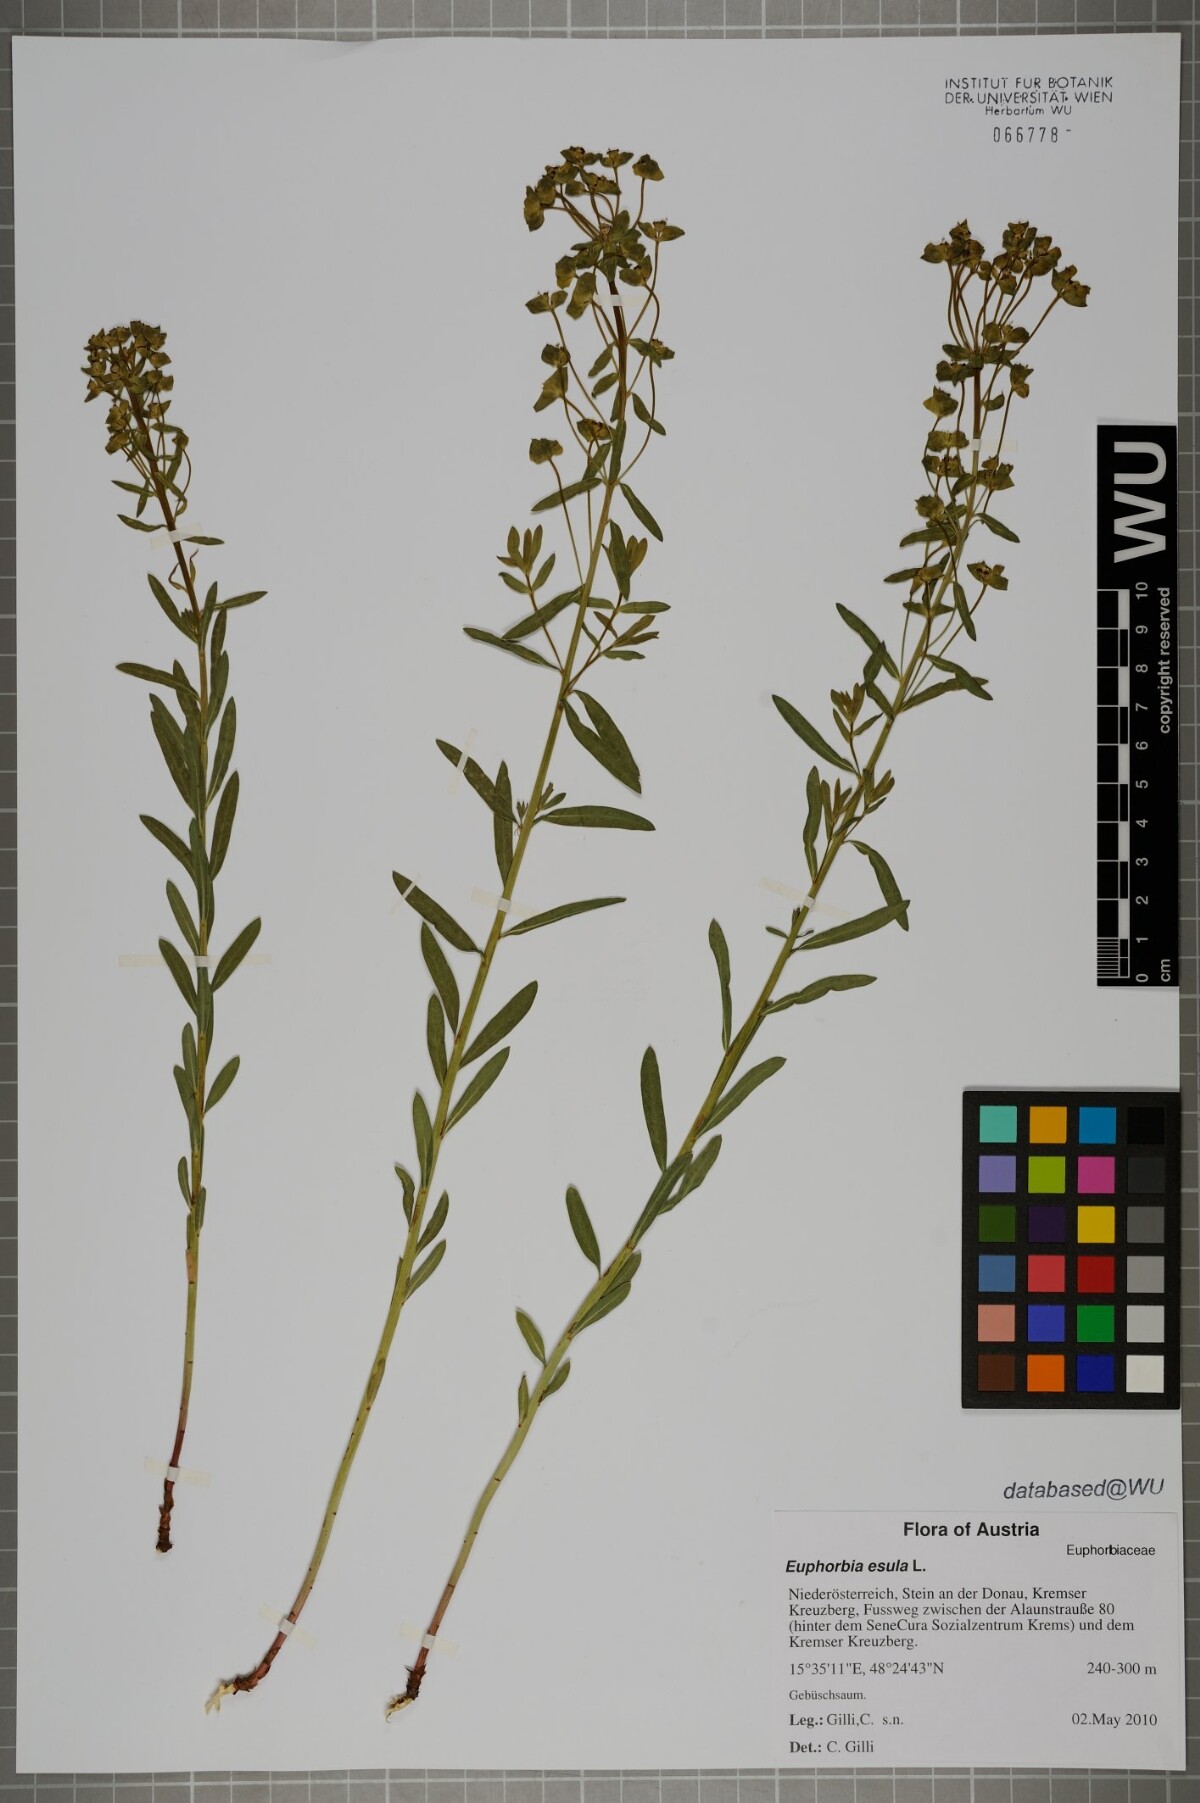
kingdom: Plantae
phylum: Tracheophyta
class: Magnoliopsida
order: Malpighiales
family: Euphorbiaceae
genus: Euphorbia
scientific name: Euphorbia esula
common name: Leafy spurge
